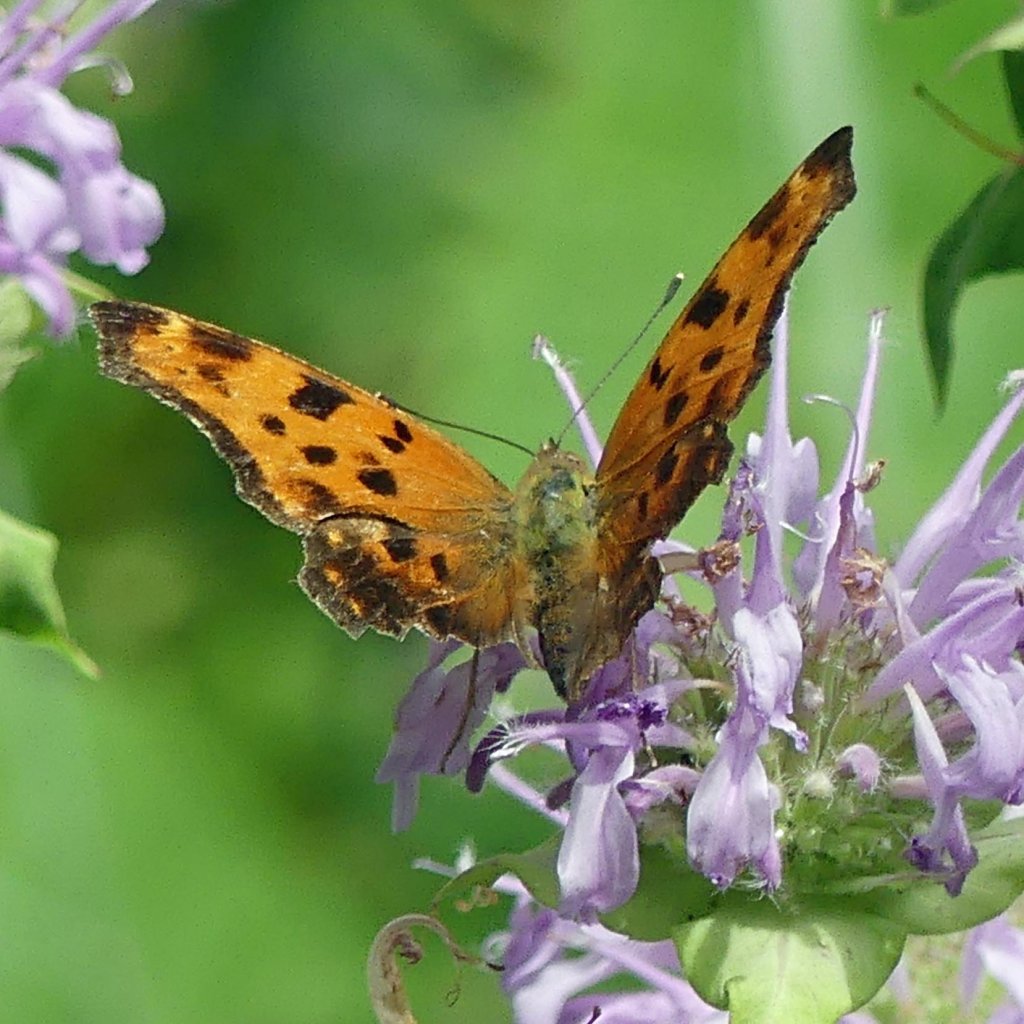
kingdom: Animalia
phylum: Arthropoda
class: Insecta
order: Lepidoptera
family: Nymphalidae
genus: Polygonia
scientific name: Polygonia comma
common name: Eastern Comma
